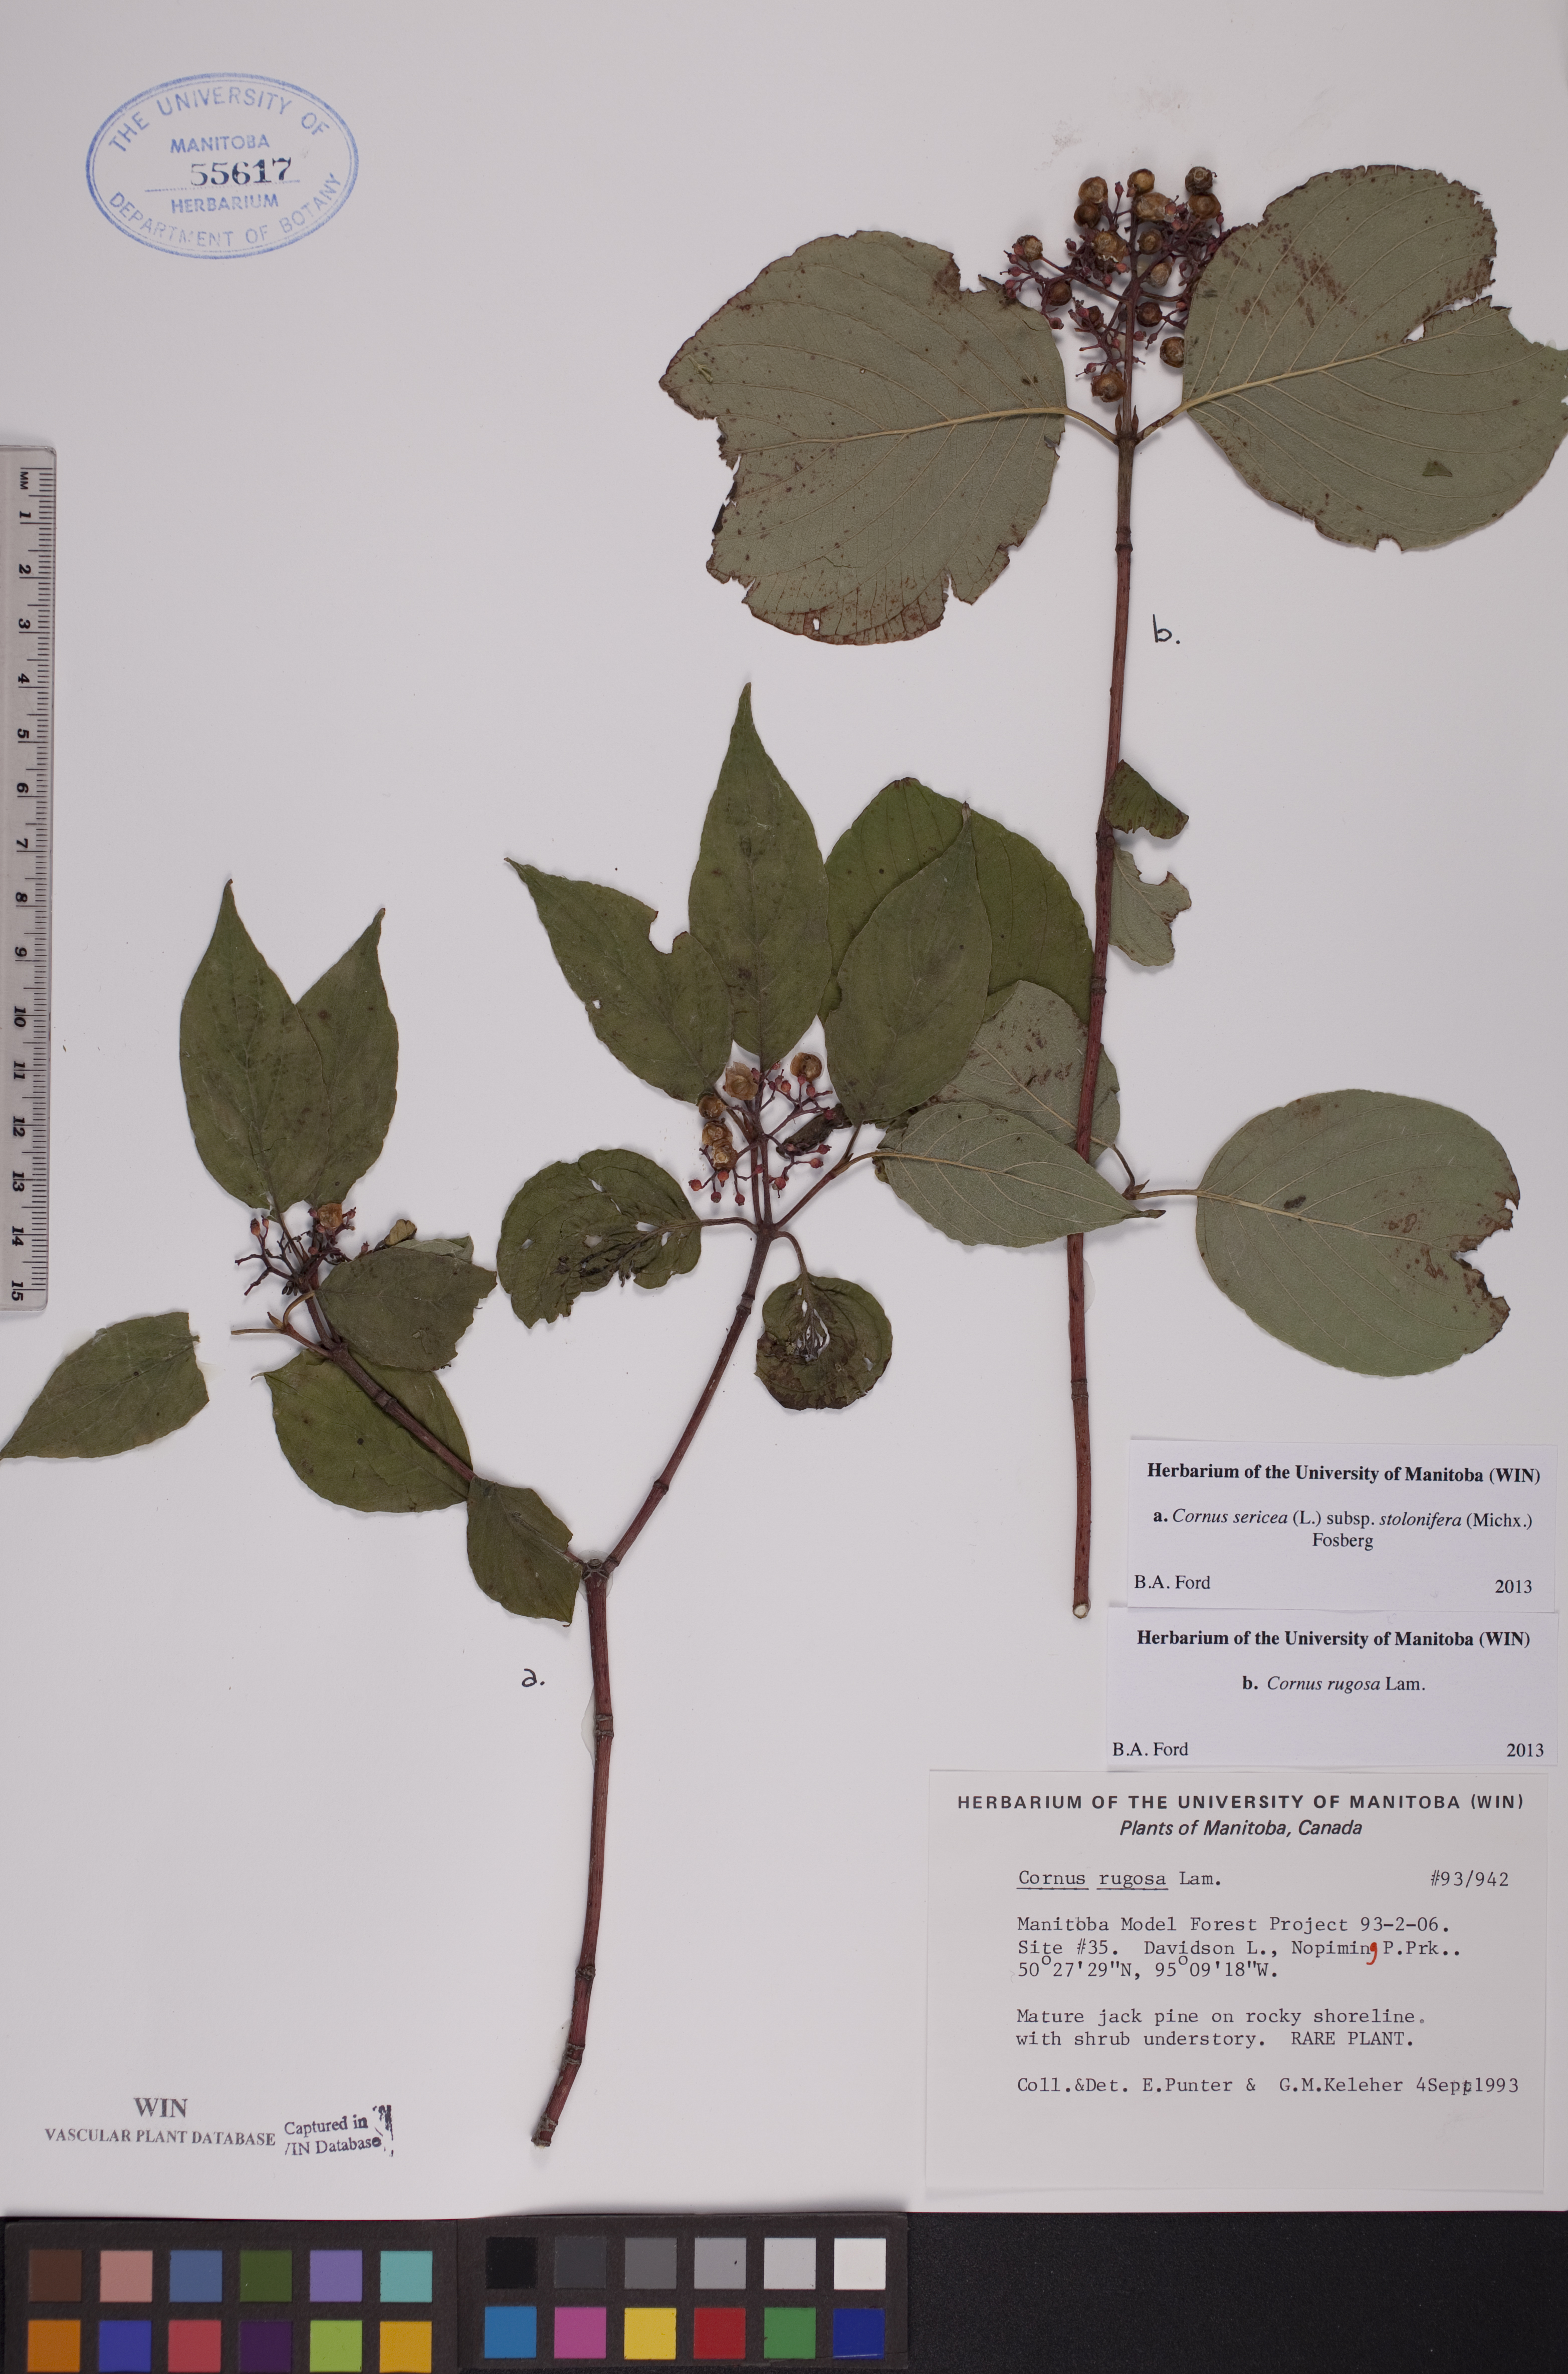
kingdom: Plantae
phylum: Tracheophyta
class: Magnoliopsida
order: Cornales
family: Cornaceae
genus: Cornus
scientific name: Cornus rugosa
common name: Round-leaf dogwood
